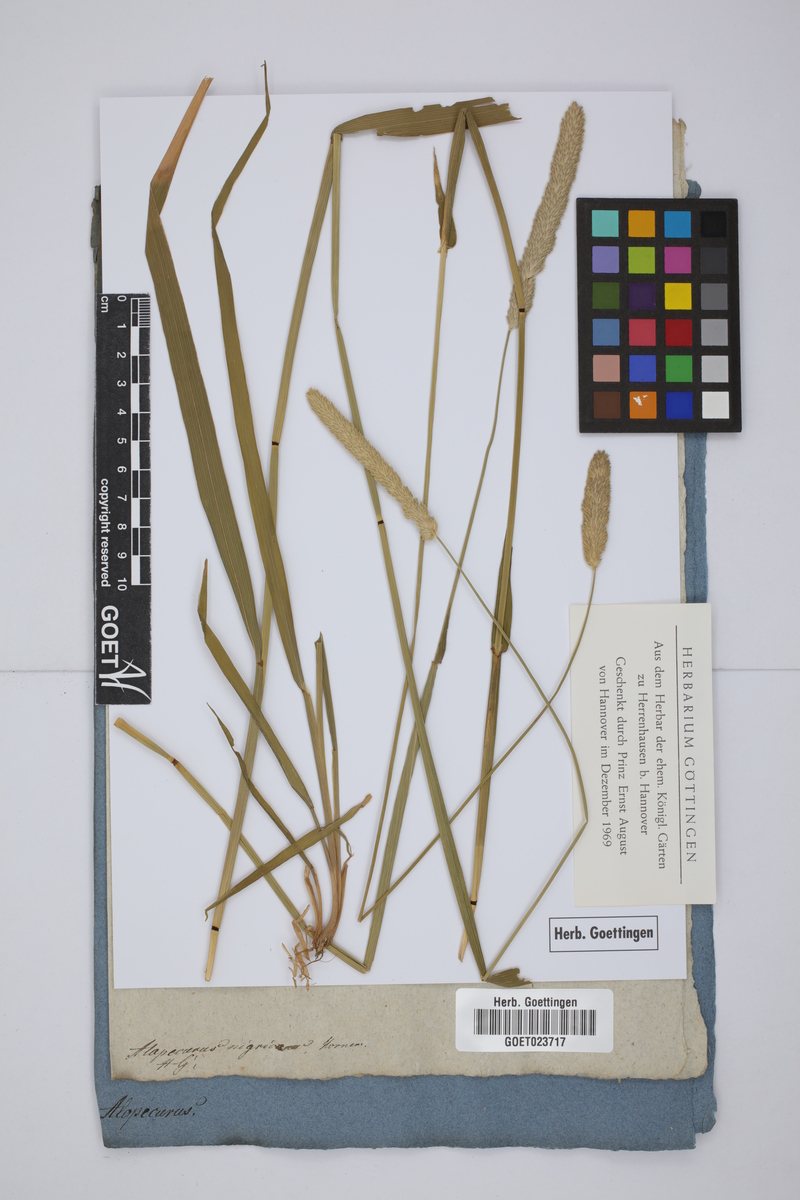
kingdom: Plantae
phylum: Tracheophyta
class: Liliopsida
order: Poales
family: Poaceae
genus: Alopecurus
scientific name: Alopecurus arundinaceus
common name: Creeping meadow foxtail
